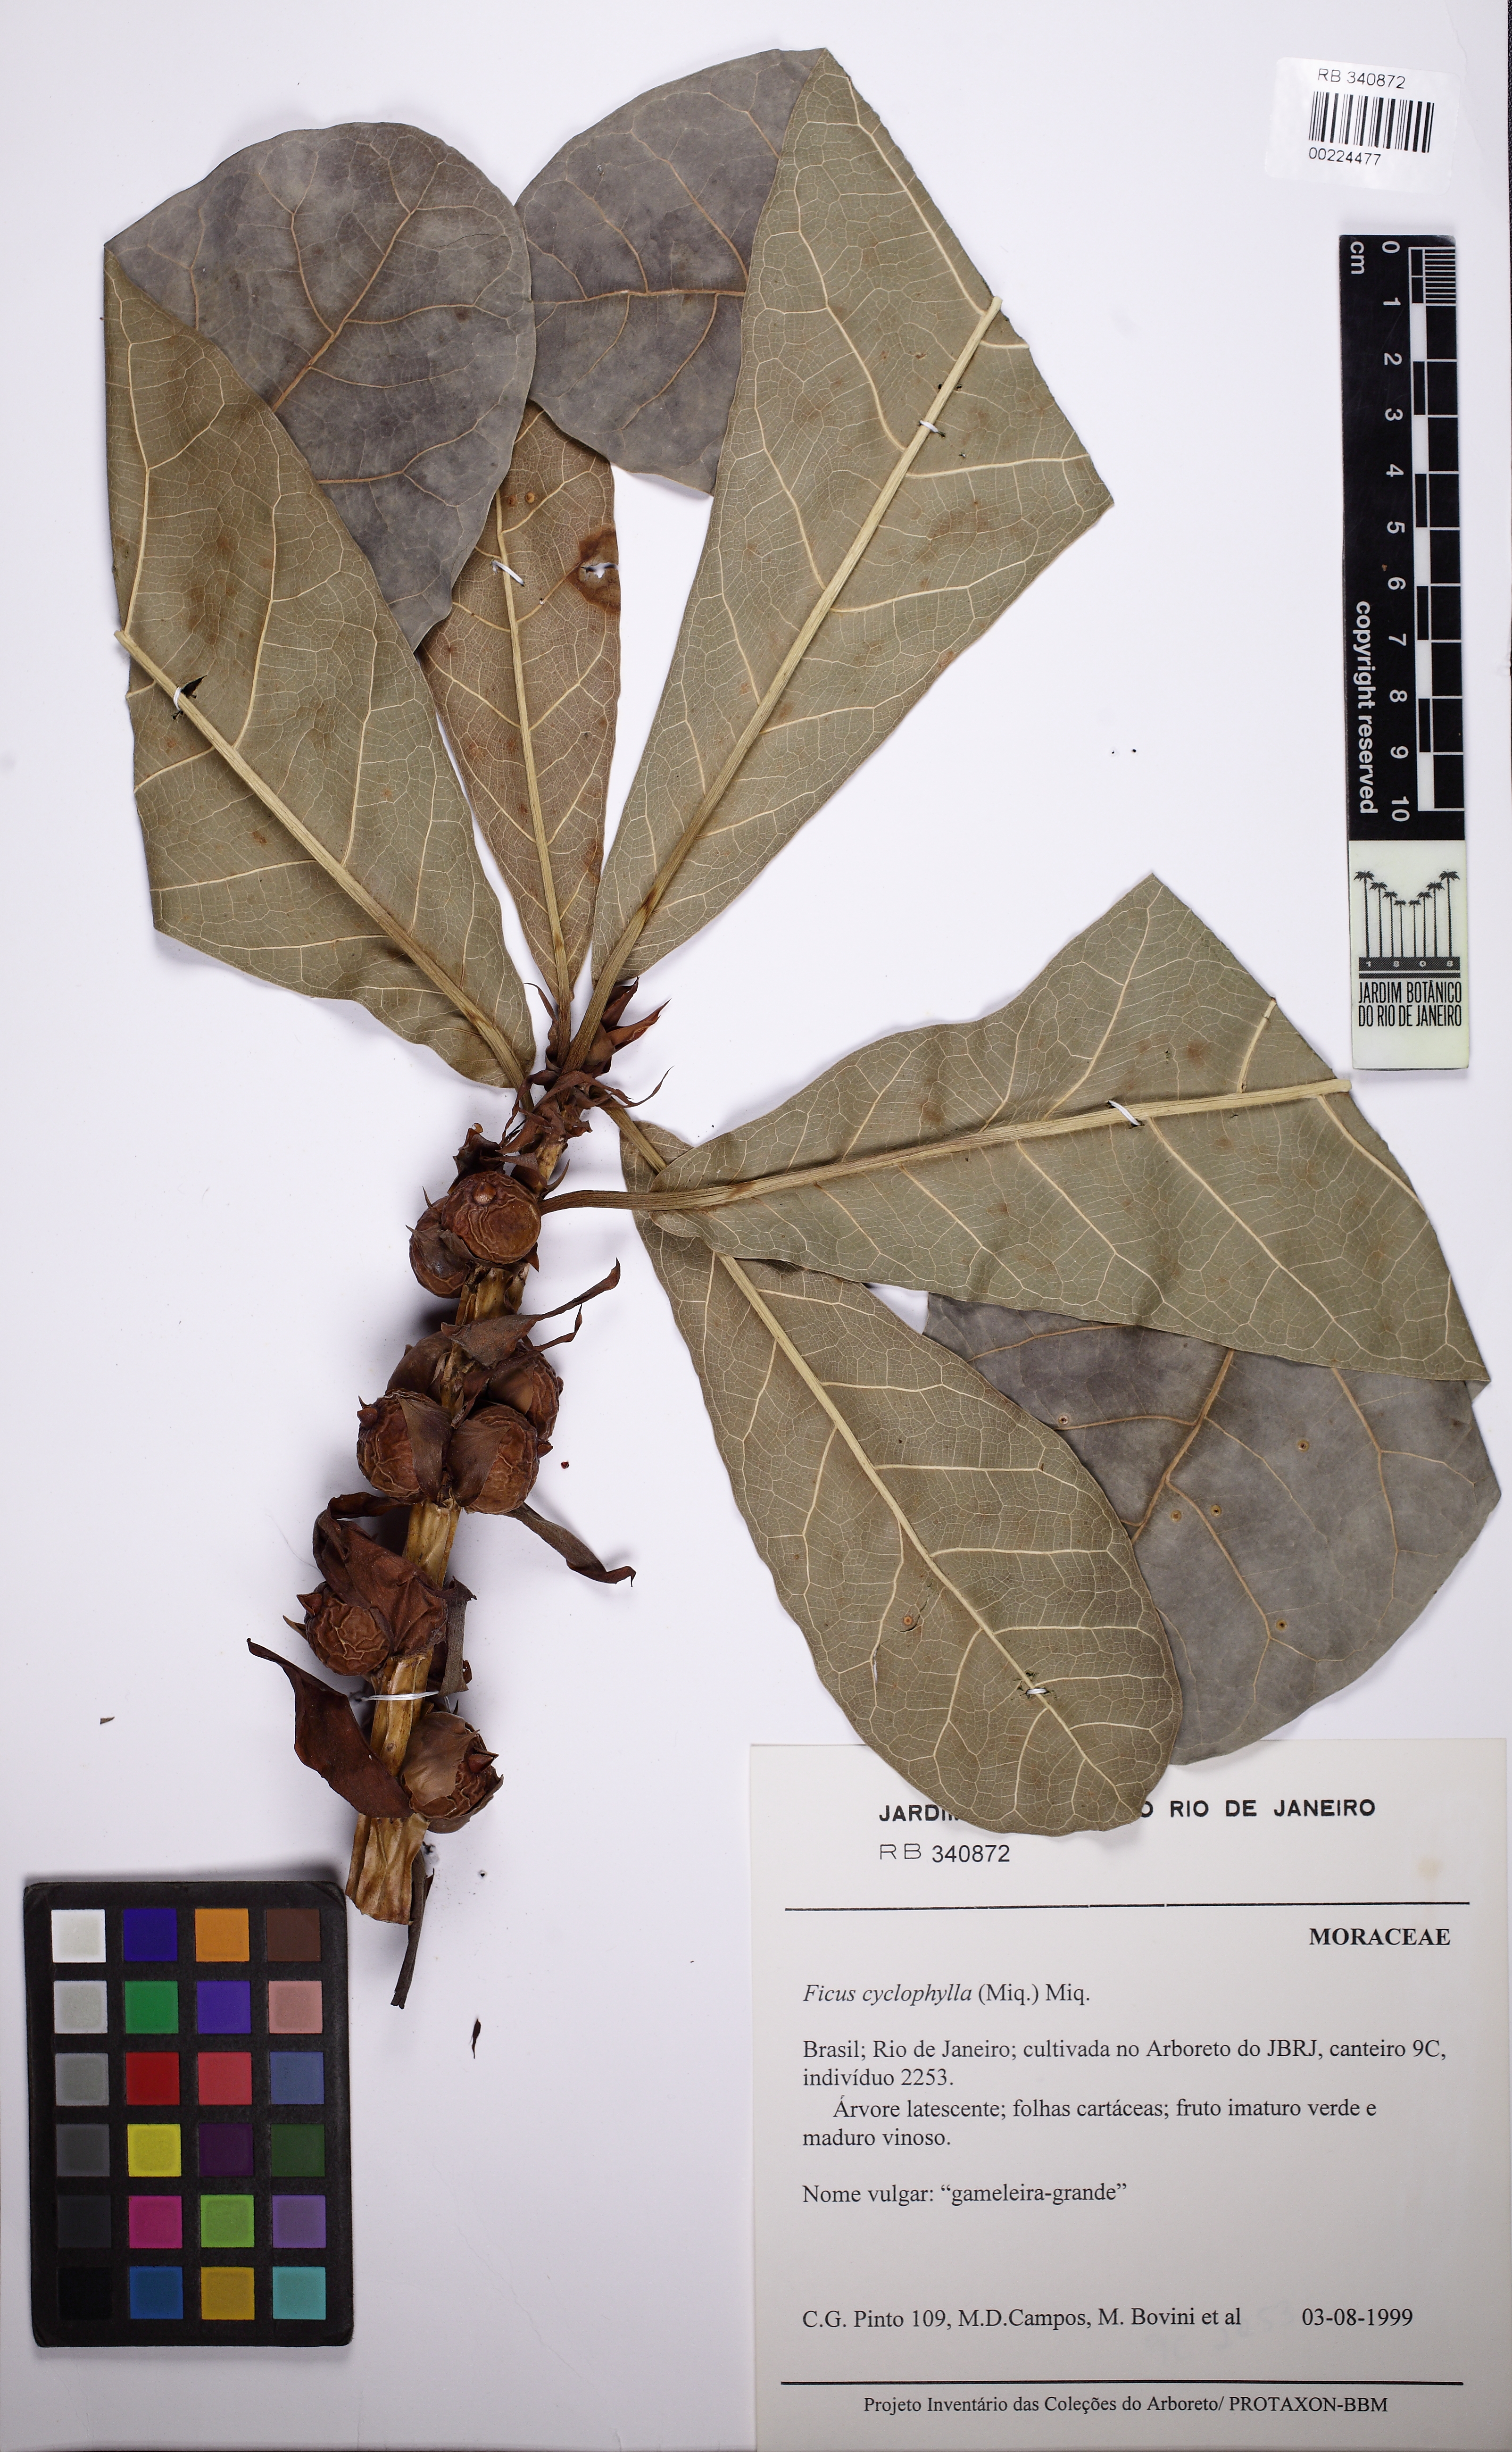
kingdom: Plantae
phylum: Tracheophyta
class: Magnoliopsida
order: Rosales
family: Moraceae
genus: Ficus
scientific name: Ficus cyclophylla
